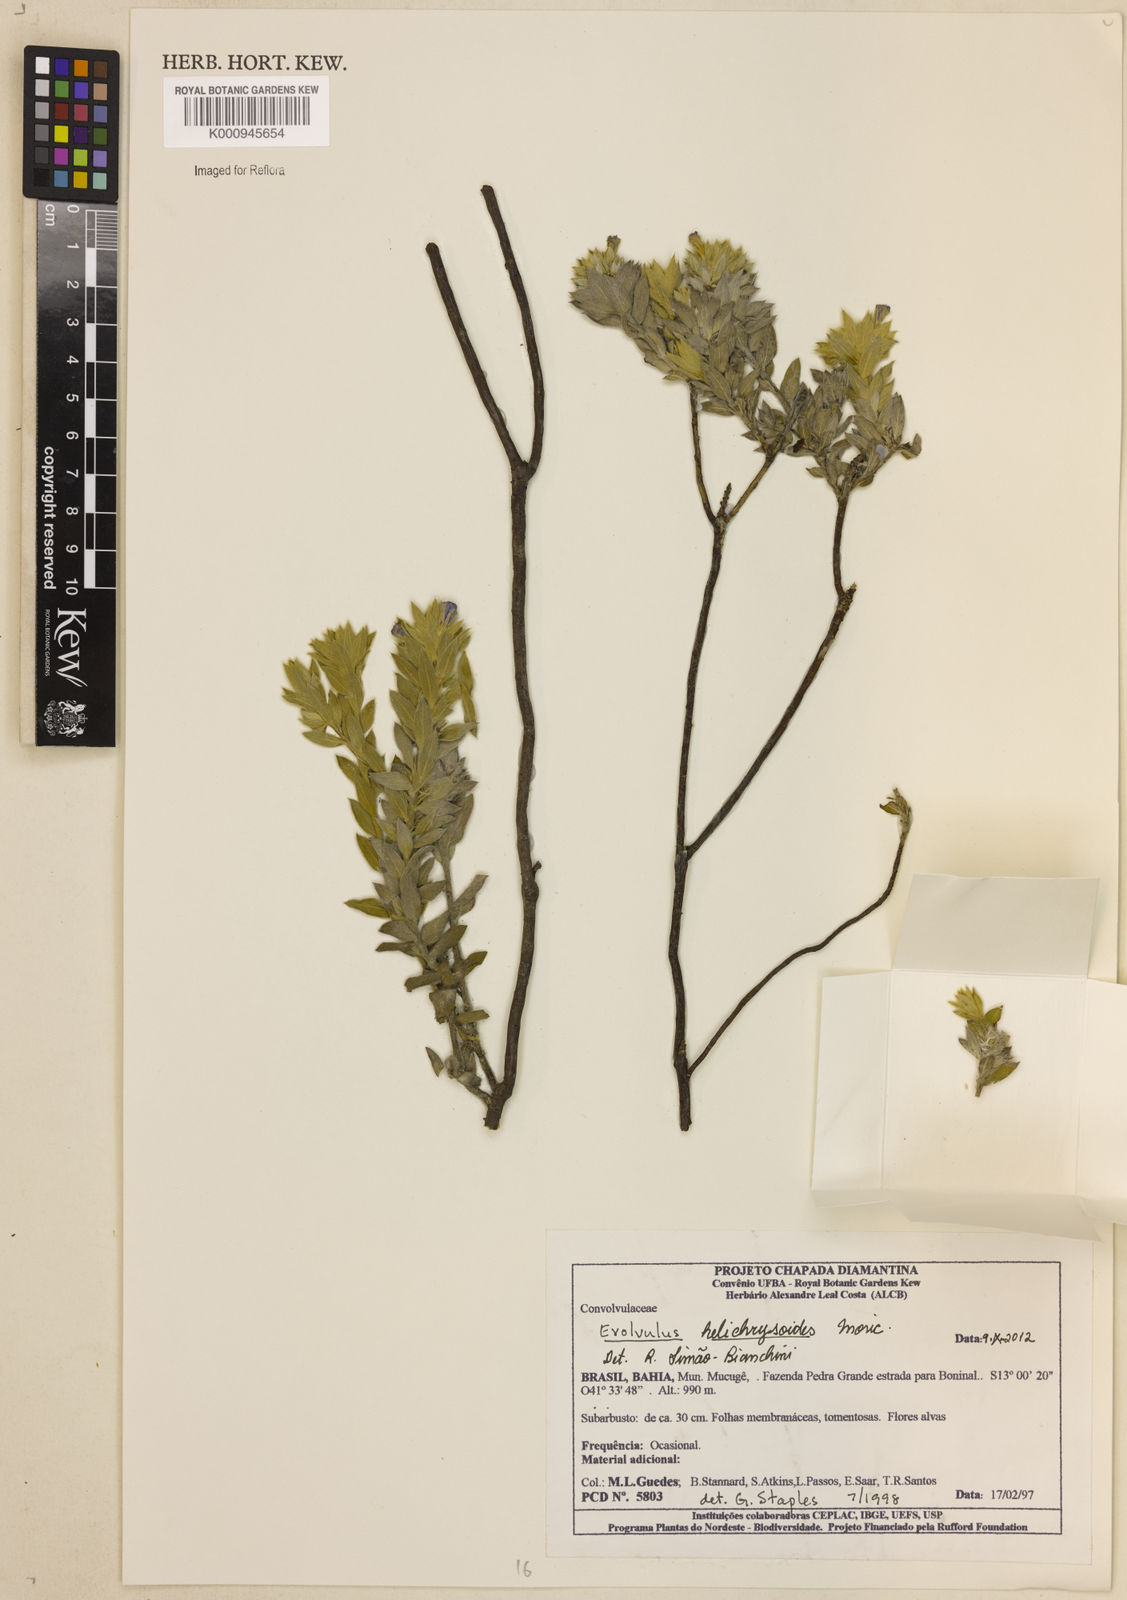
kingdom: Plantae
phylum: Tracheophyta
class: Magnoliopsida
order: Solanales
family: Convolvulaceae
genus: Evolvulus
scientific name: Evolvulus helichrysoides
